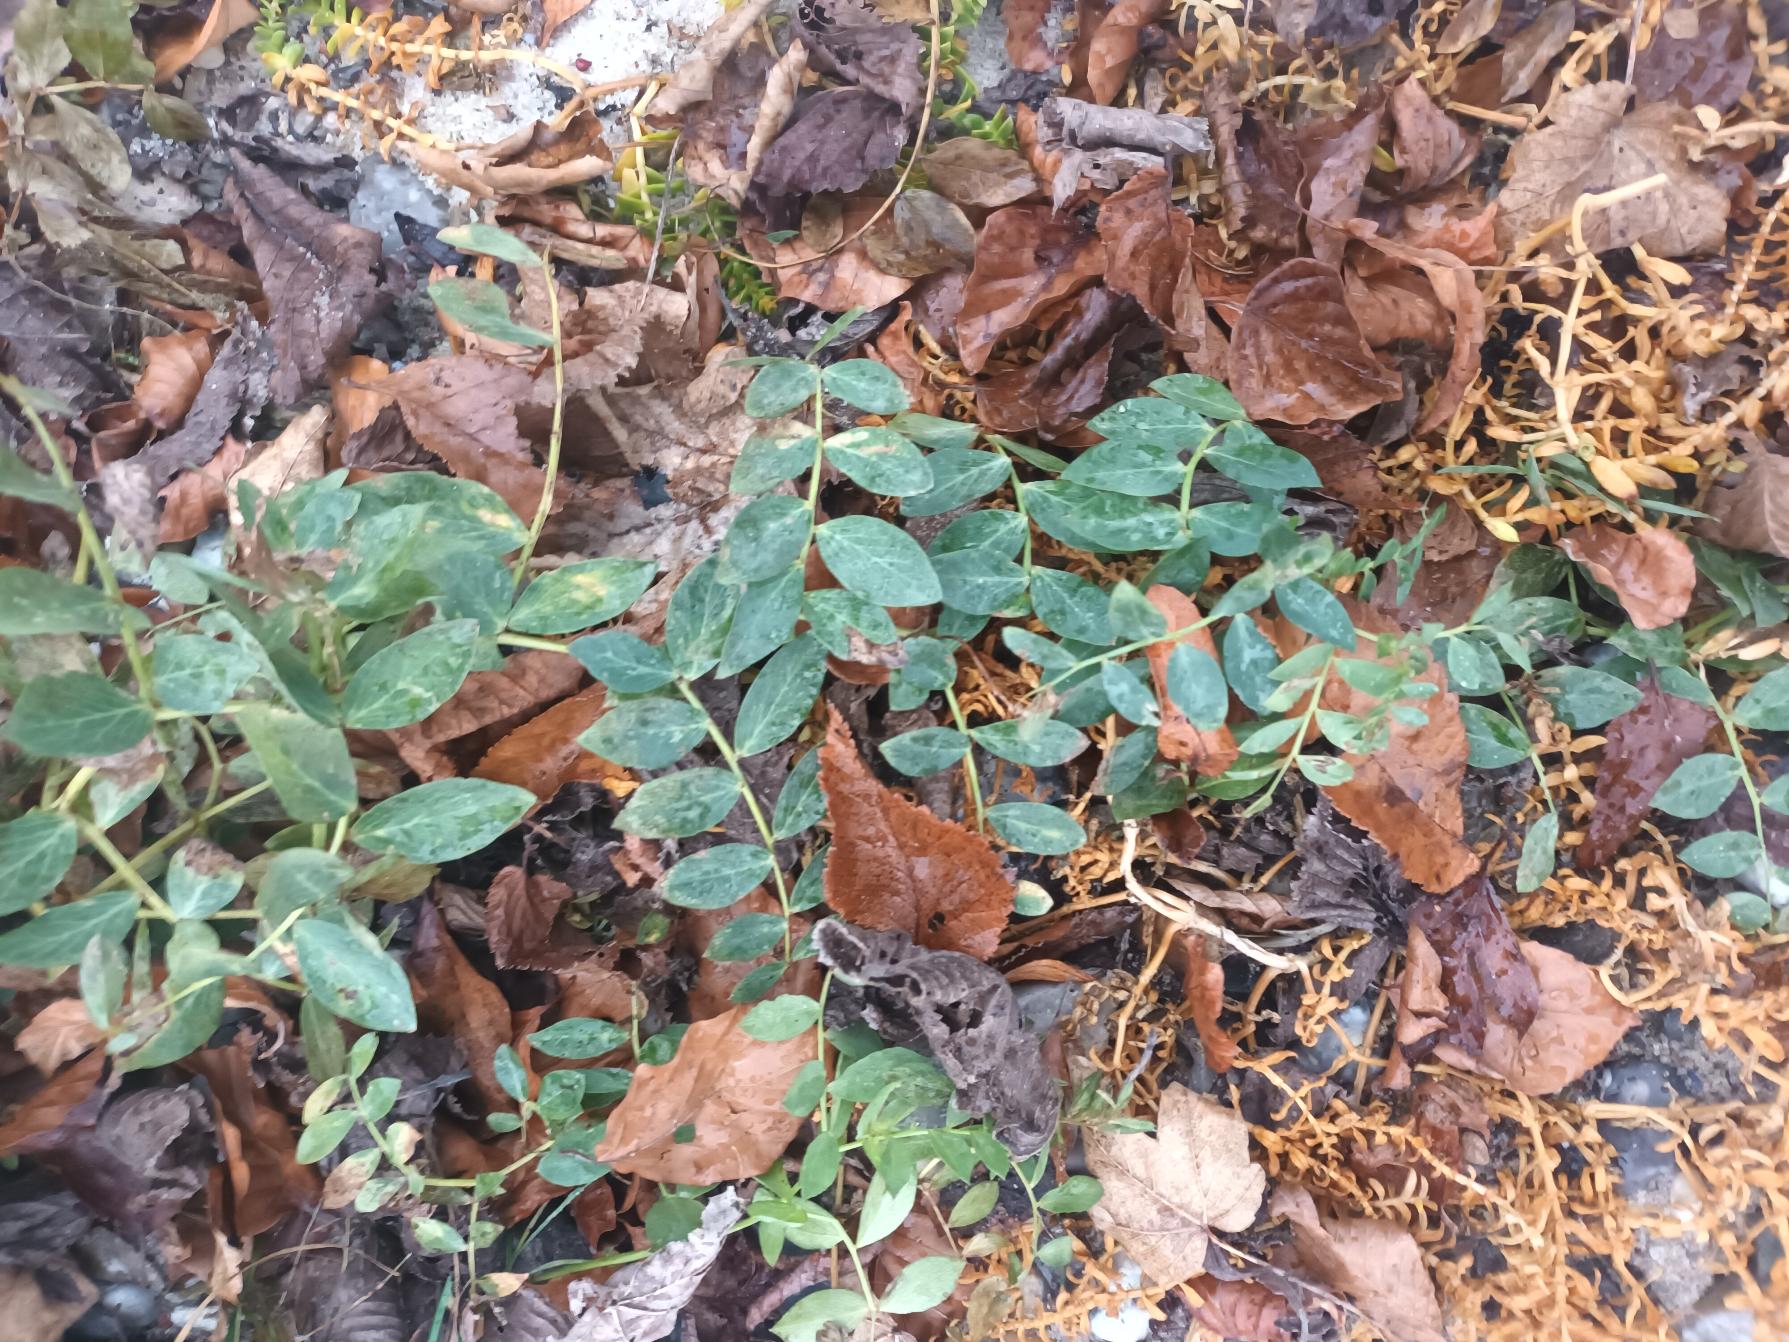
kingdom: Plantae
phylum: Tracheophyta
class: Magnoliopsida
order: Fabales
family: Fabaceae
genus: Lathyrus
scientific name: Lathyrus japonicus
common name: Strand-fladbælg
